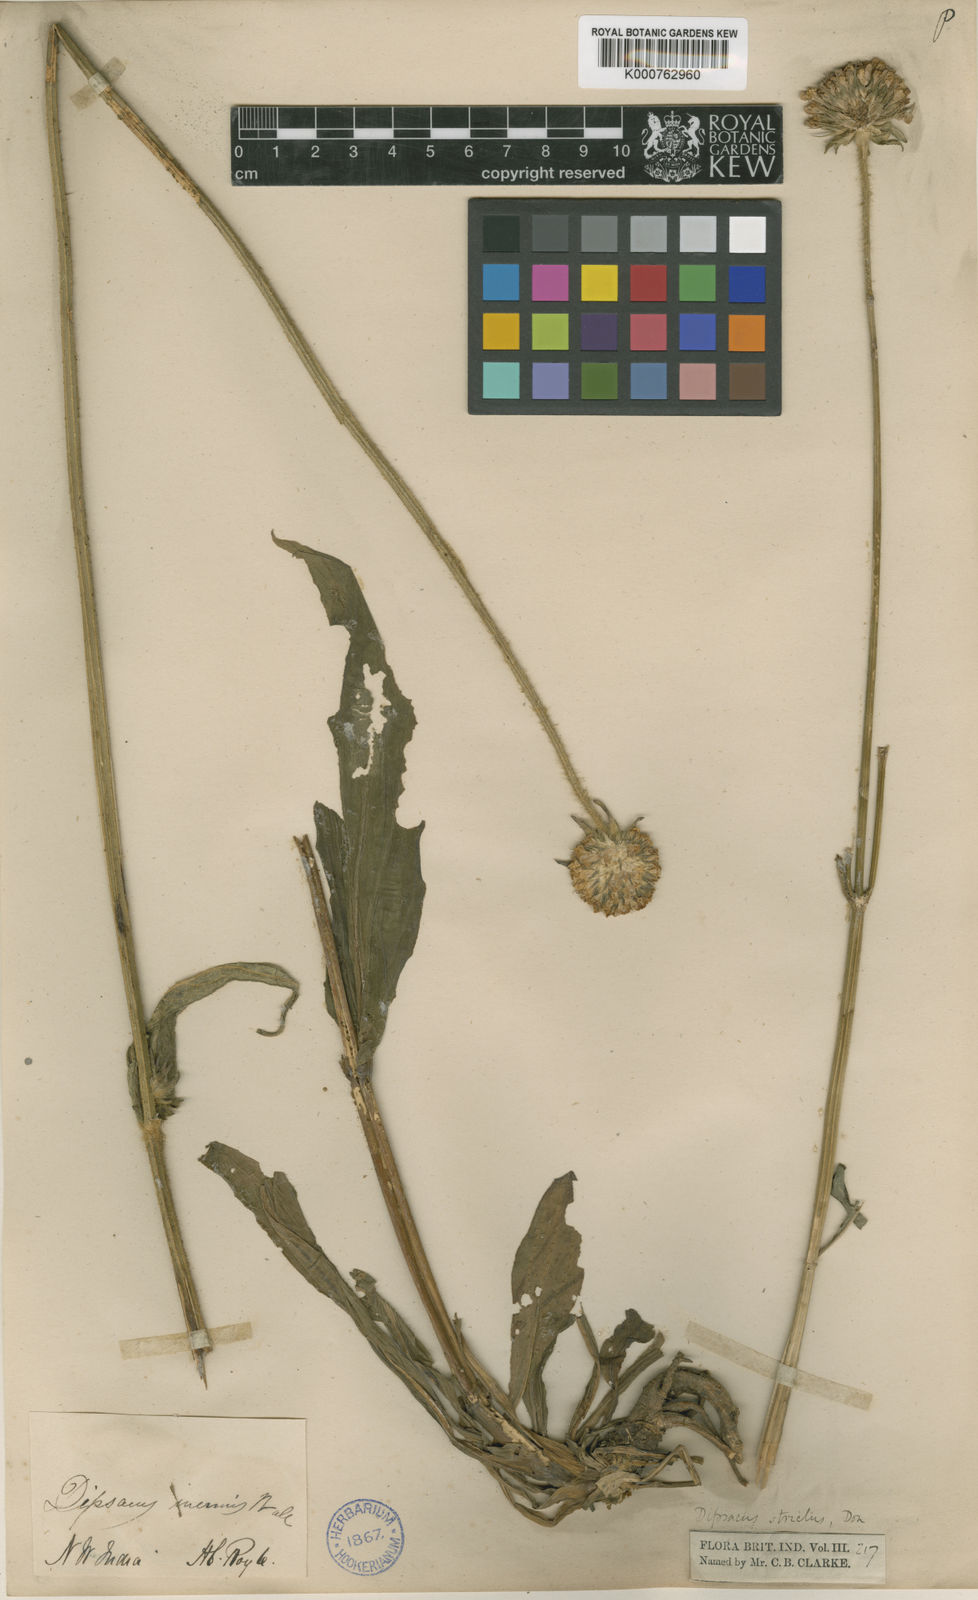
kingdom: Plantae
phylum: Tracheophyta
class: Magnoliopsida
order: Dipsacales
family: Caprifoliaceae
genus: Dipsacus
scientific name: Dipsacus inermis
